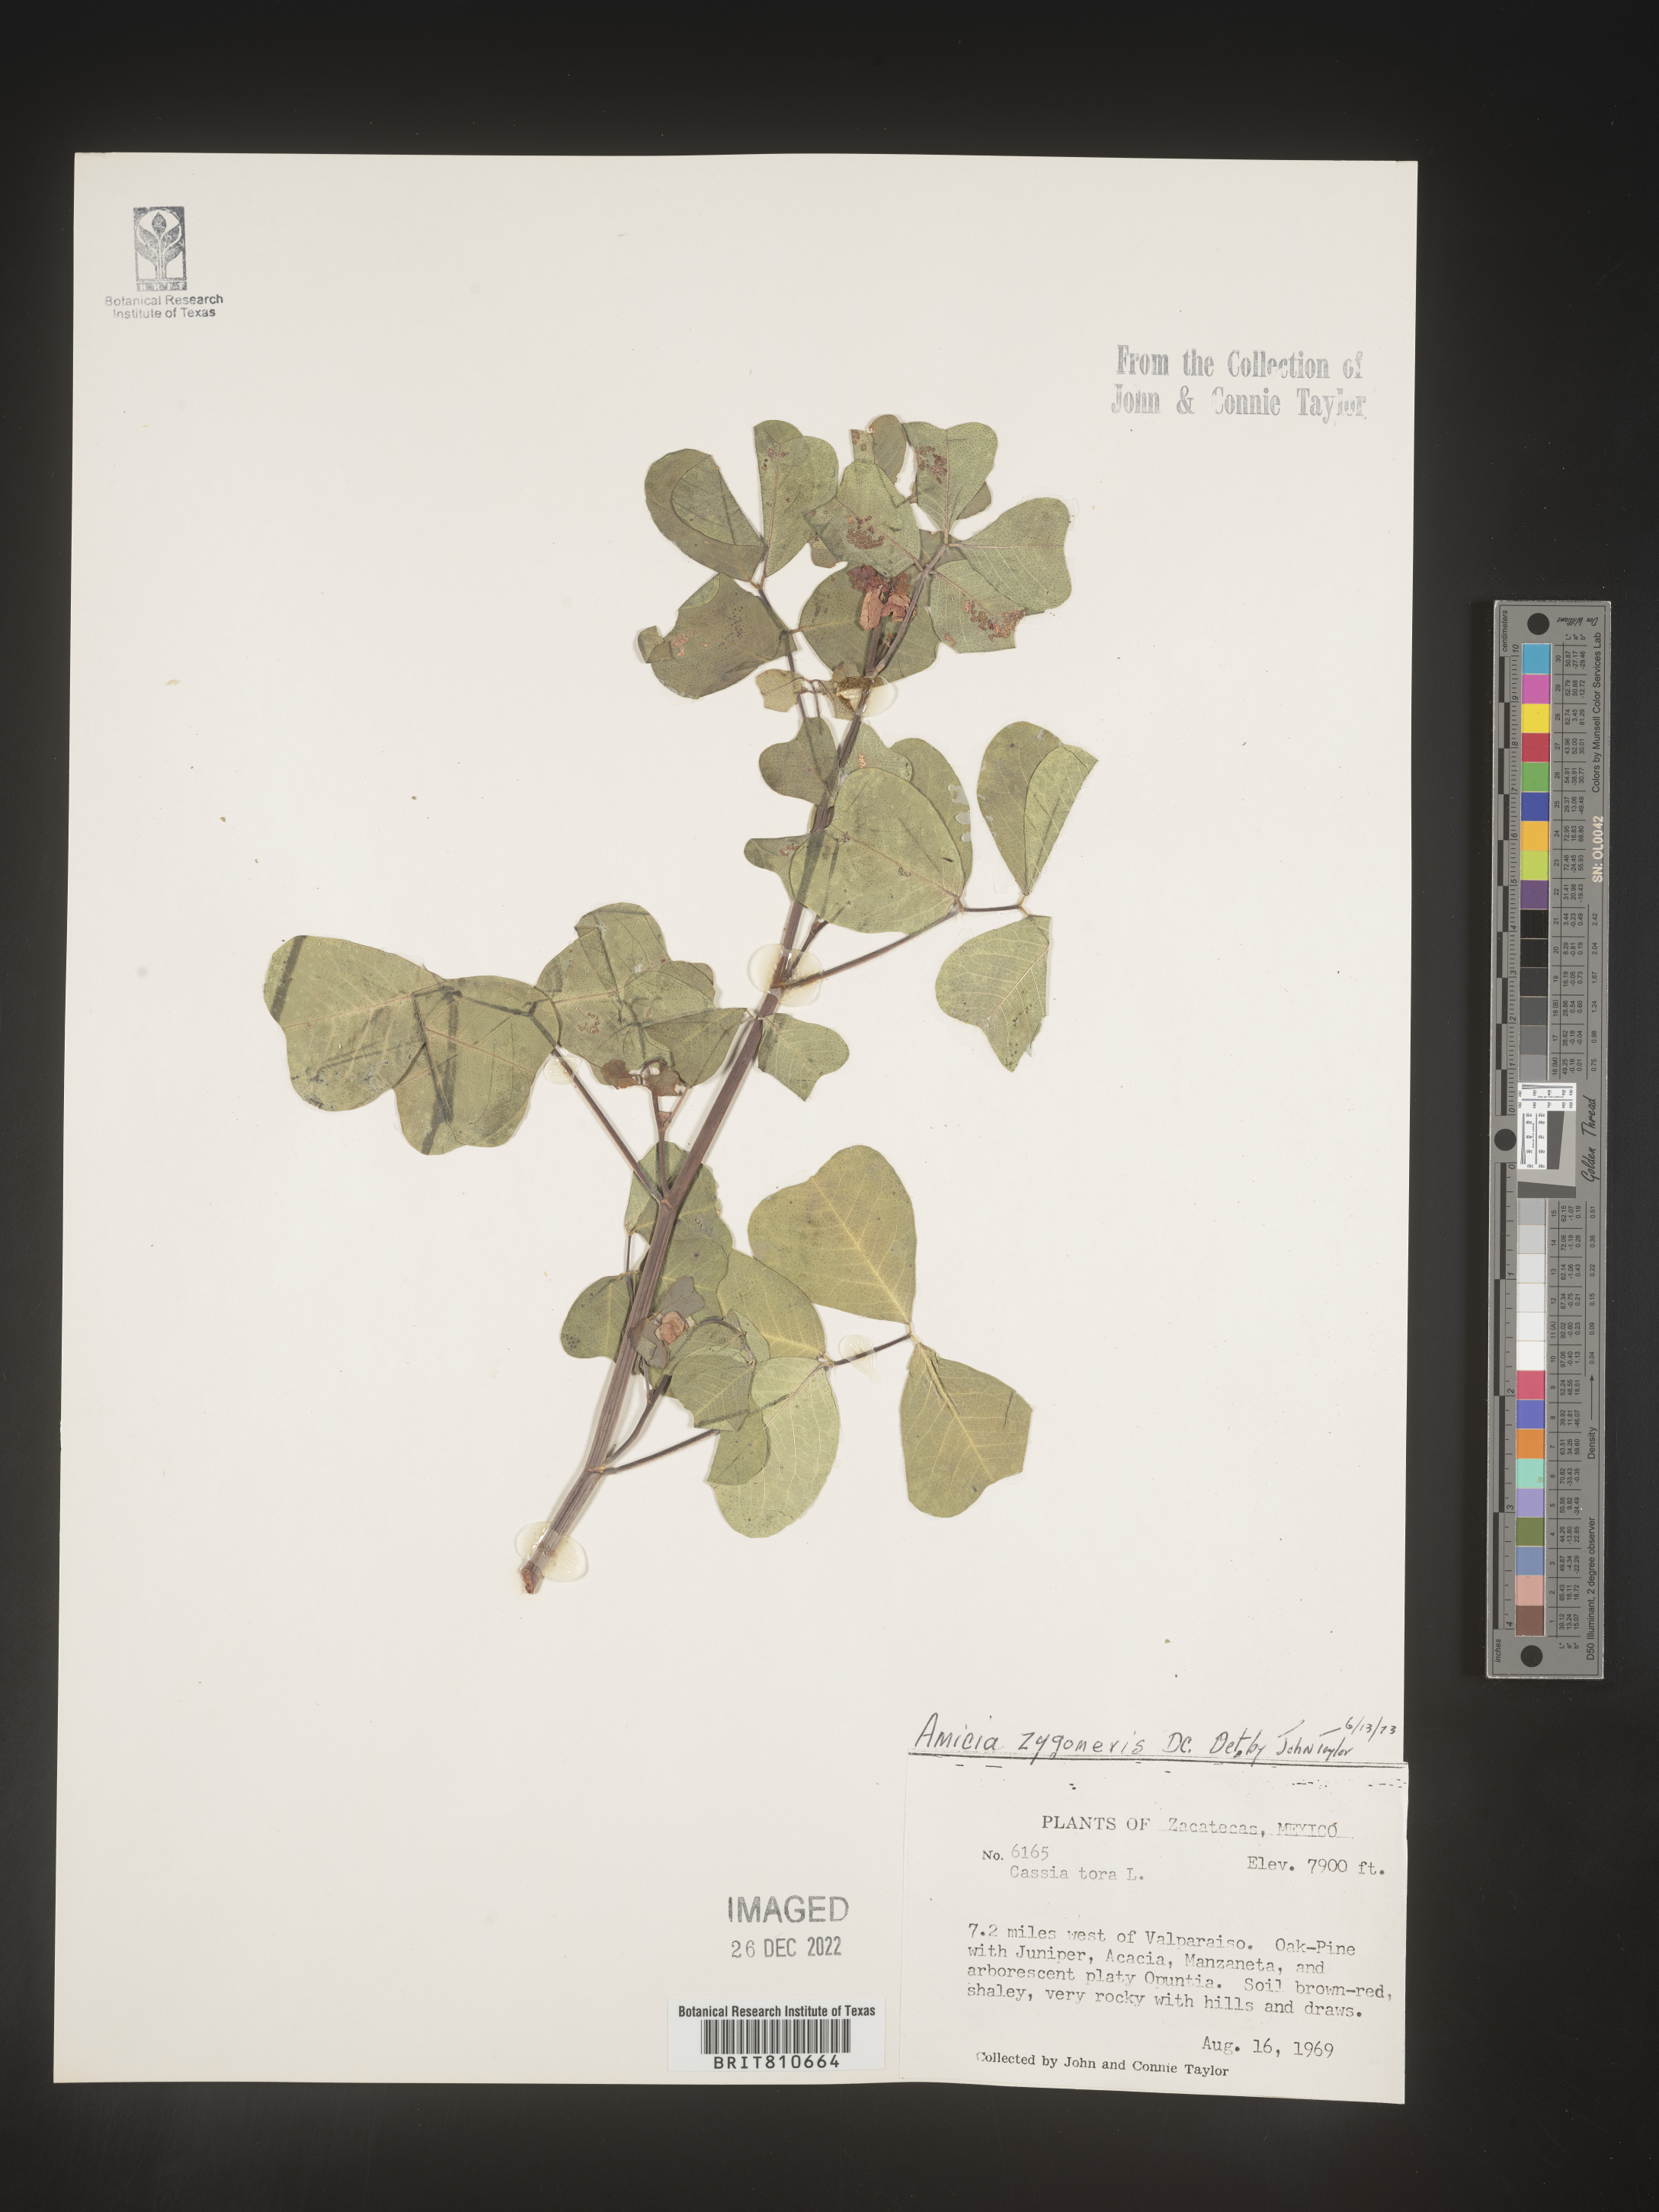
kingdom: Plantae
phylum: Tracheophyta
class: Magnoliopsida
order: Fabales
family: Fabaceae
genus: Amicia
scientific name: Amicia
